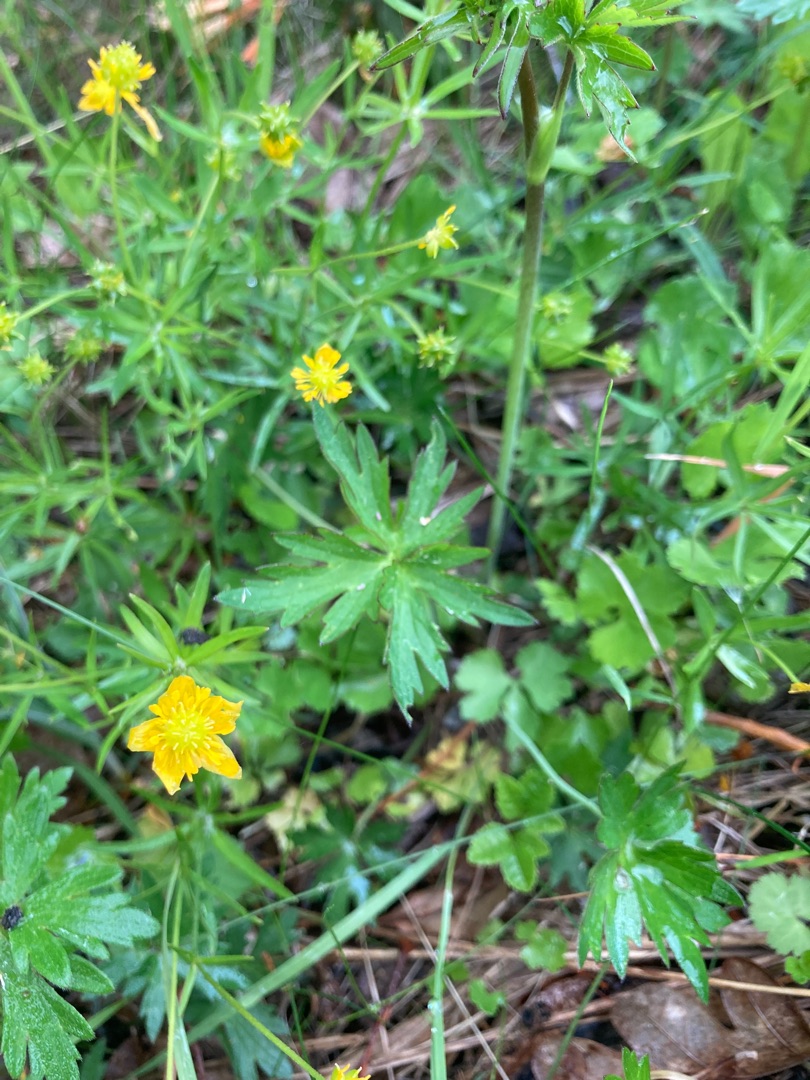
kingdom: Plantae
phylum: Tracheophyta
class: Magnoliopsida
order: Ranunculales
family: Ranunculaceae
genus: Ranunculus
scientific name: Ranunculus auricomus
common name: Nyrebladet ranunkel
